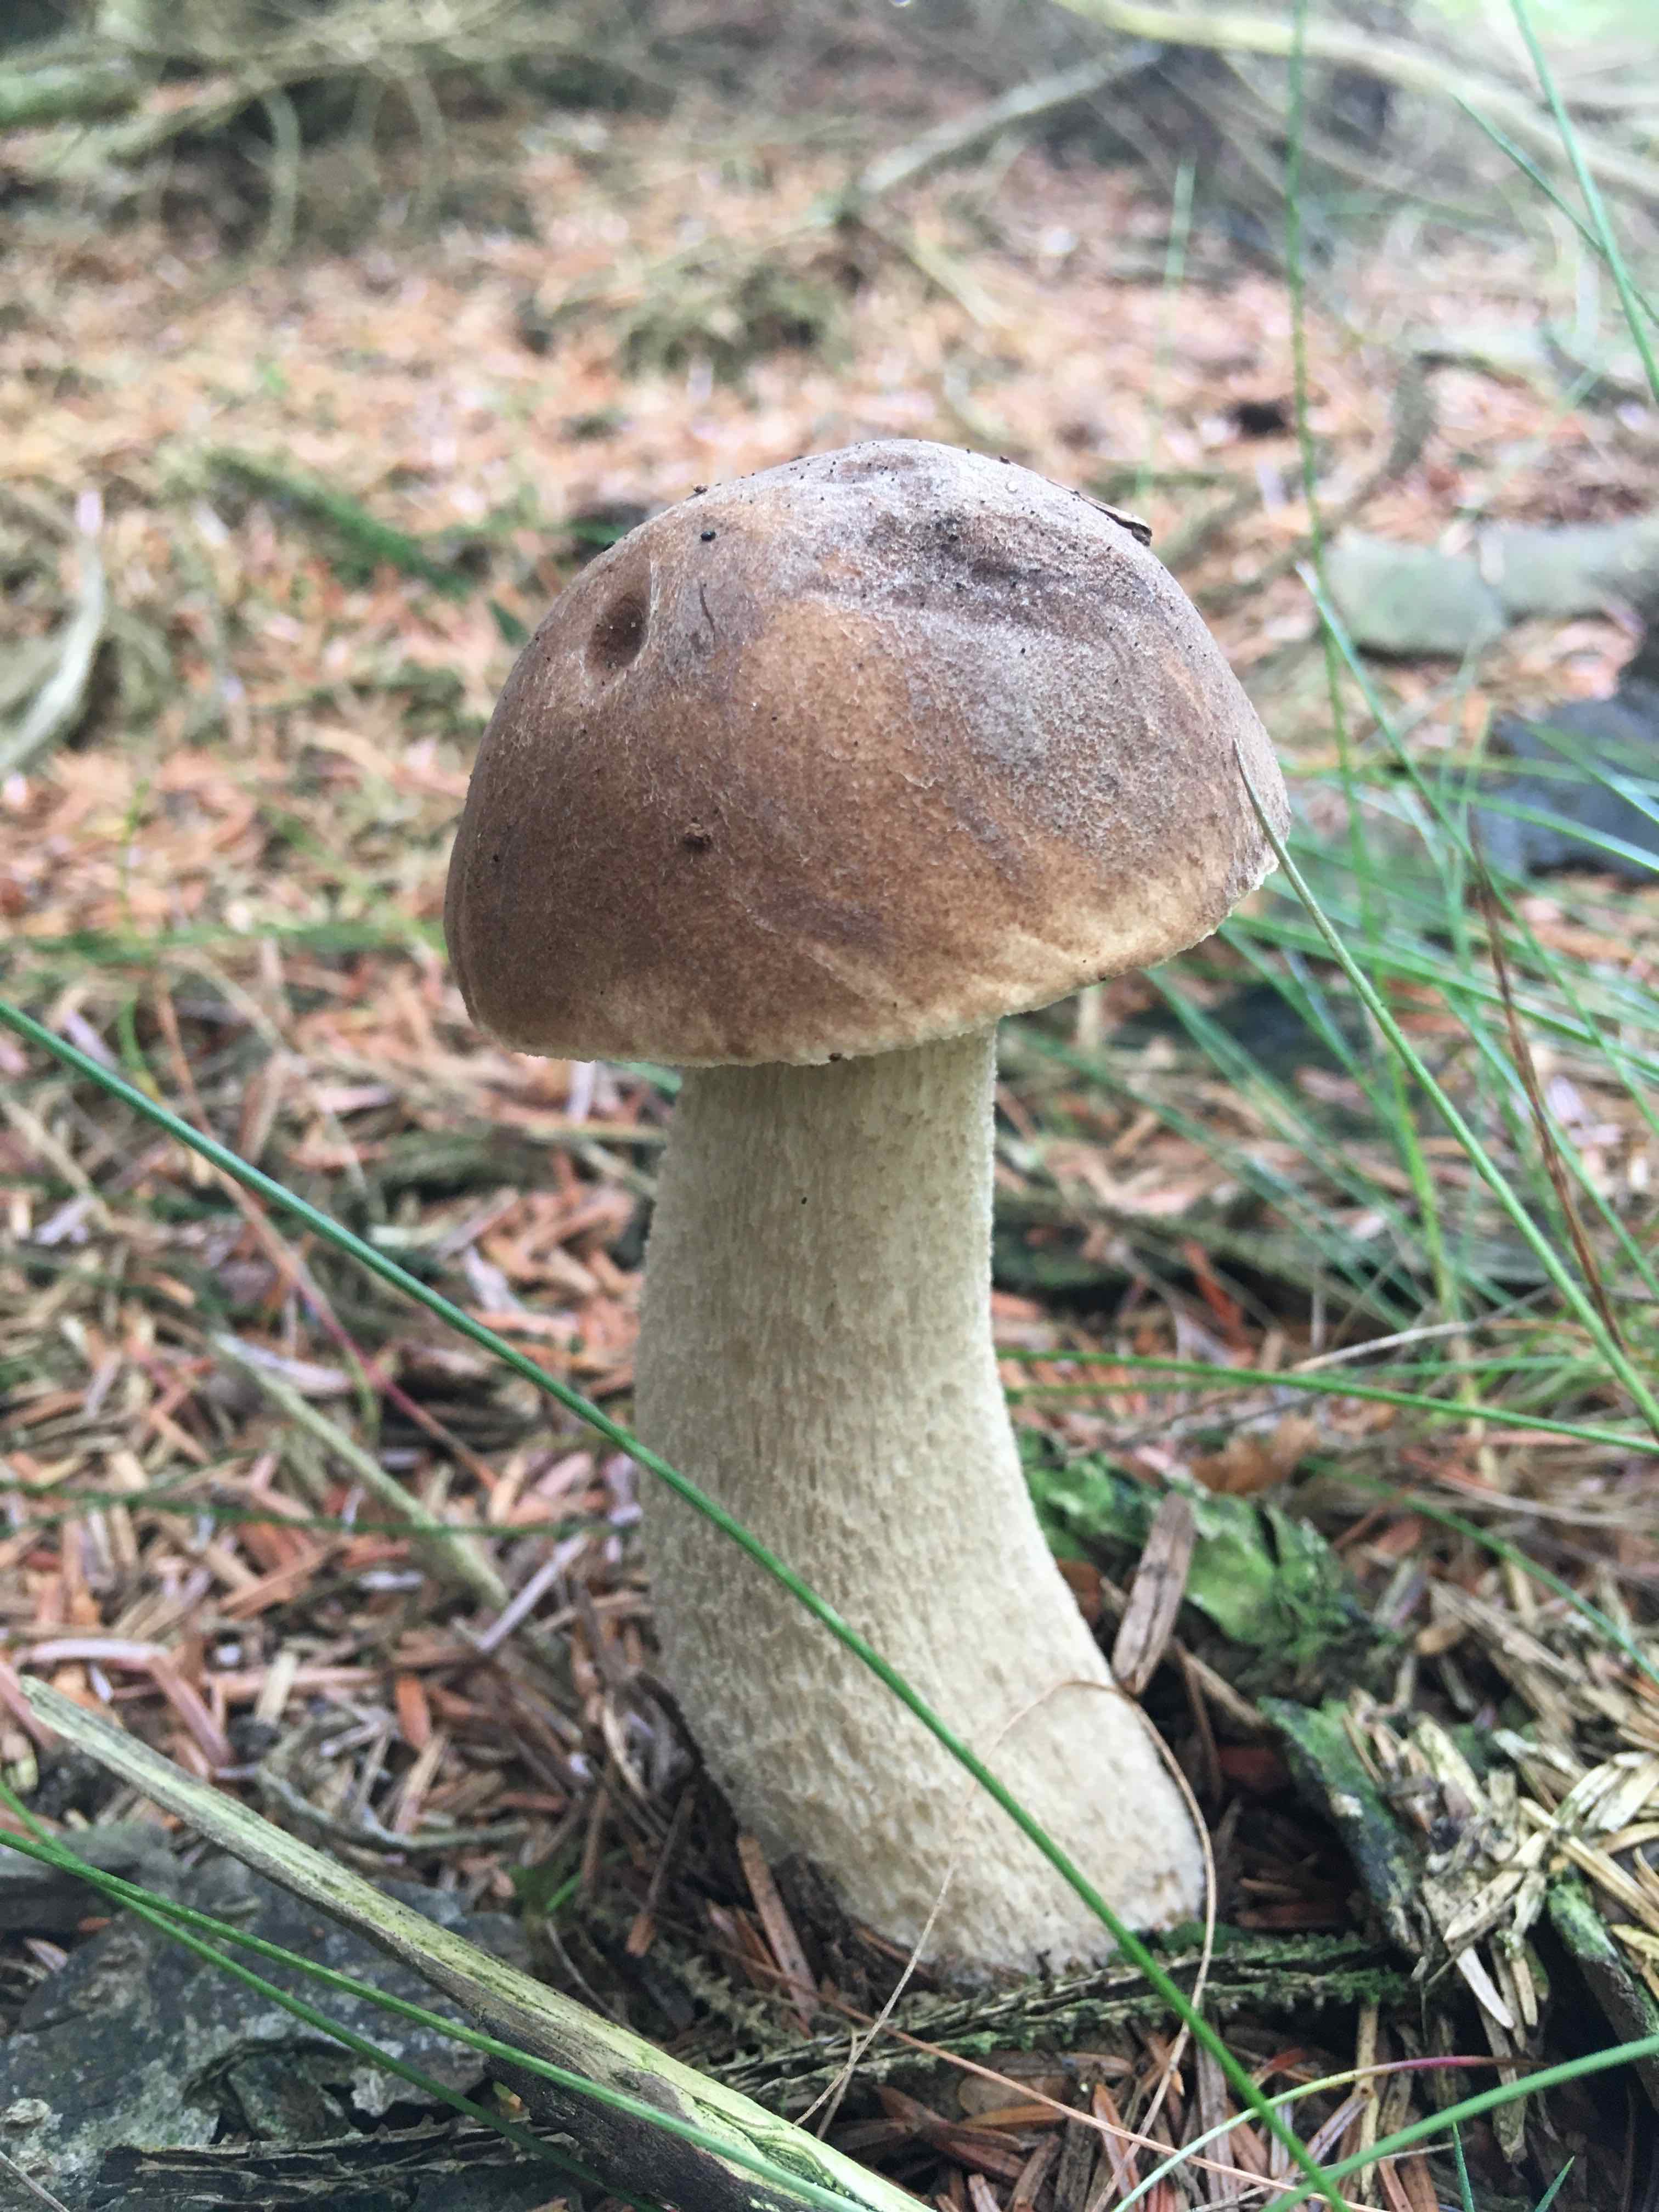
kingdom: Fungi
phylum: Basidiomycota
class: Agaricomycetes
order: Boletales
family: Boletaceae
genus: Leccinum
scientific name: Leccinum
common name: skælrørhat
